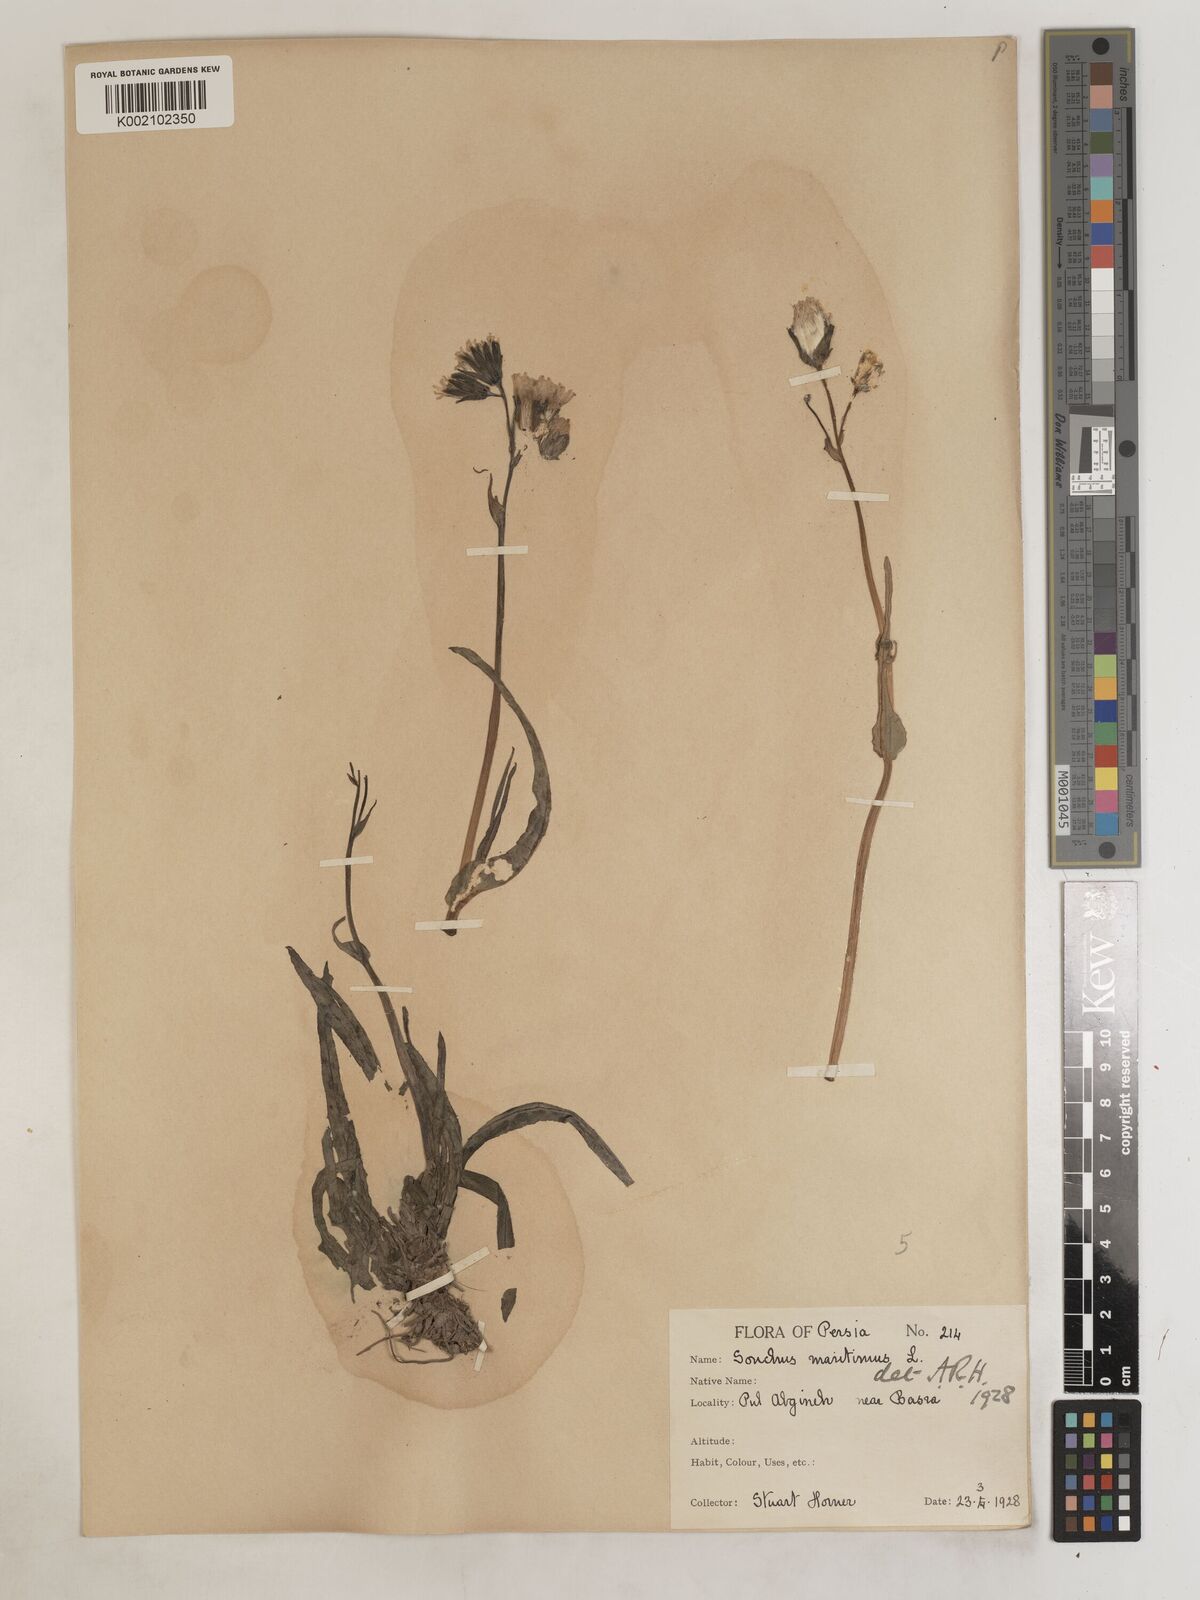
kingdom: Plantae
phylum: Tracheophyta
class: Magnoliopsida
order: Asterales
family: Asteraceae
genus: Sonchus
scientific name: Sonchus maritimus
